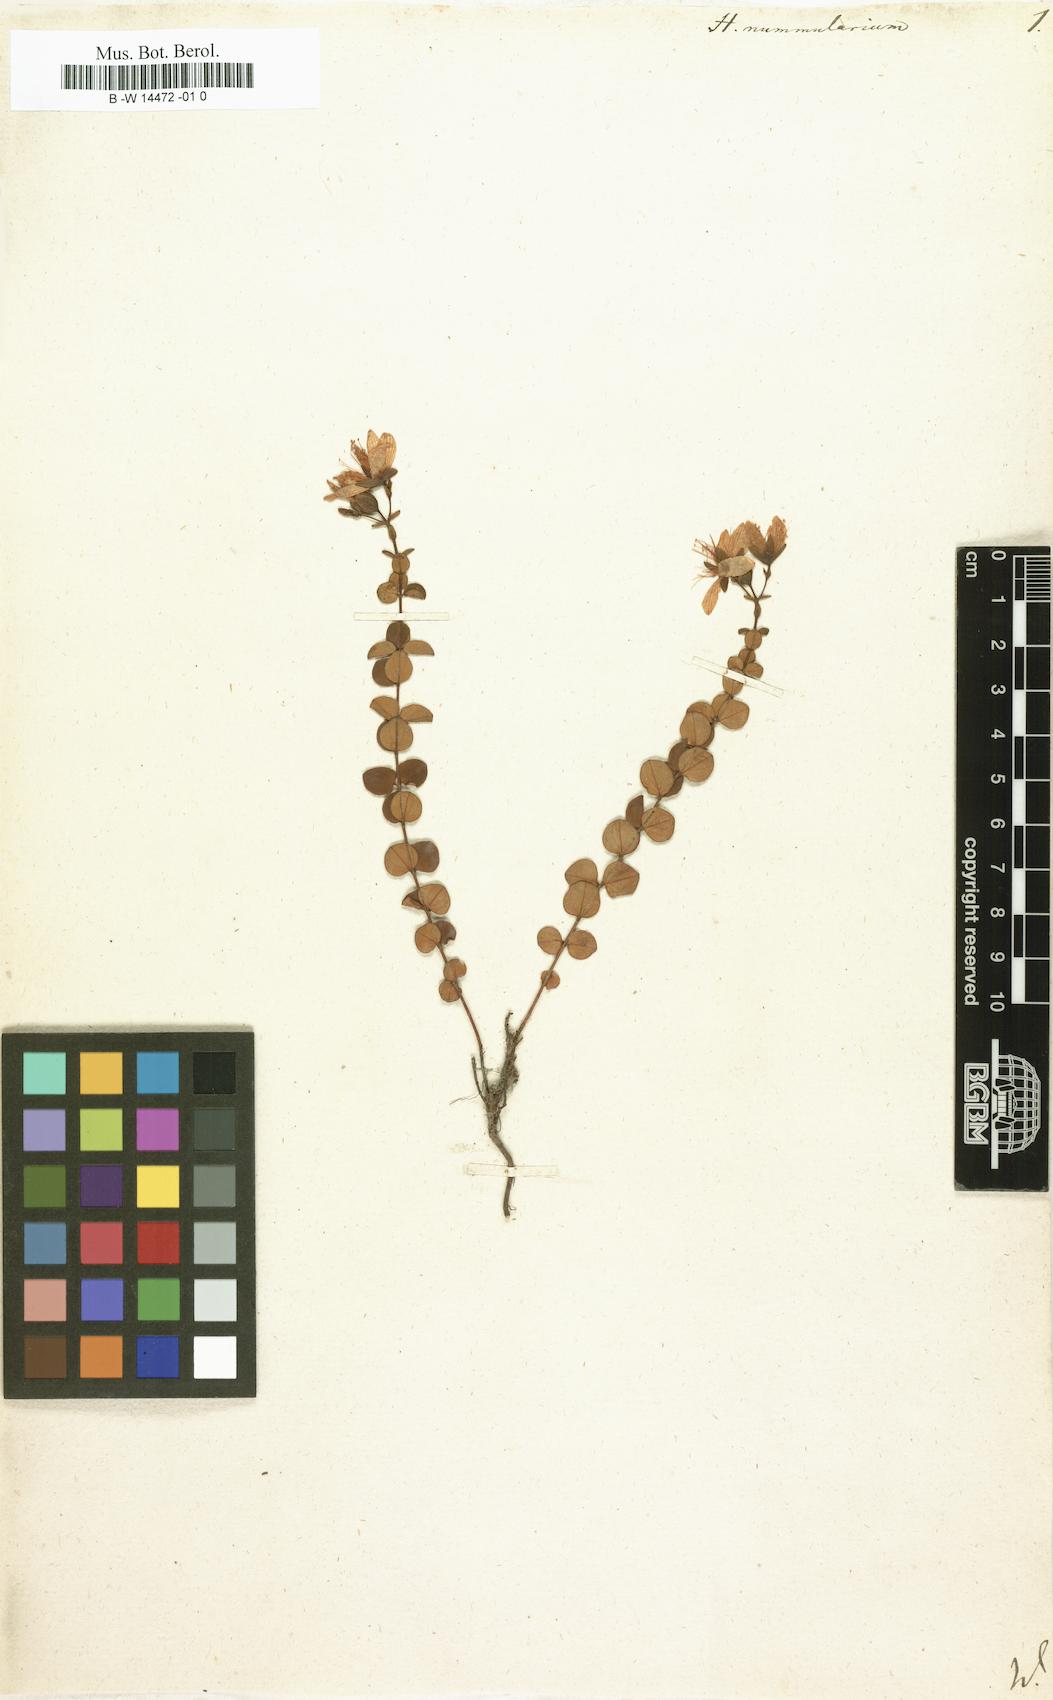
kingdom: Plantae
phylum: Tracheophyta
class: Magnoliopsida
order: Malpighiales
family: Hypericaceae
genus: Hypericum
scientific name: Hypericum nummularium
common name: Round-leaved st john's-wort
